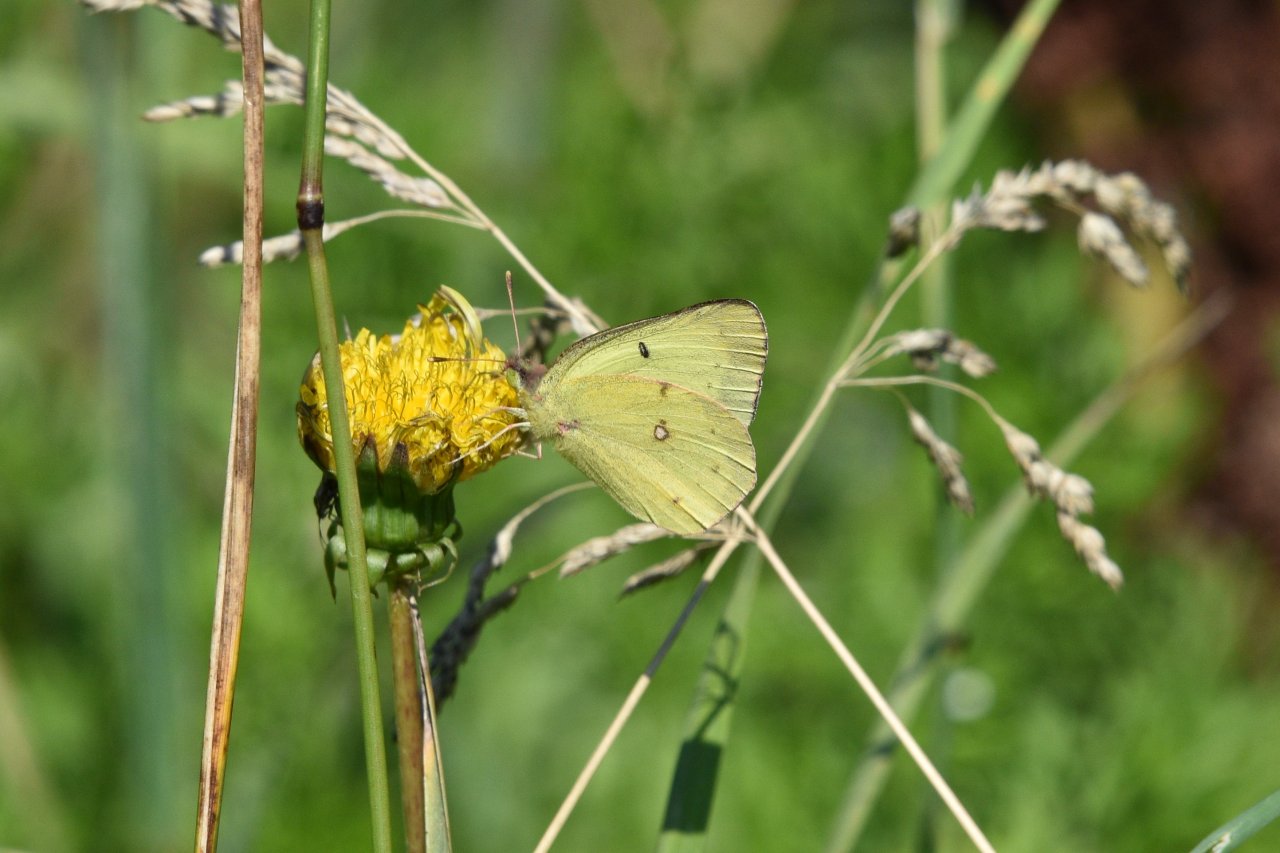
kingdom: Animalia
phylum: Arthropoda
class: Insecta
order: Lepidoptera
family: Pieridae
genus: Colias
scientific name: Colias philodice
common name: Clouded Sulphur
